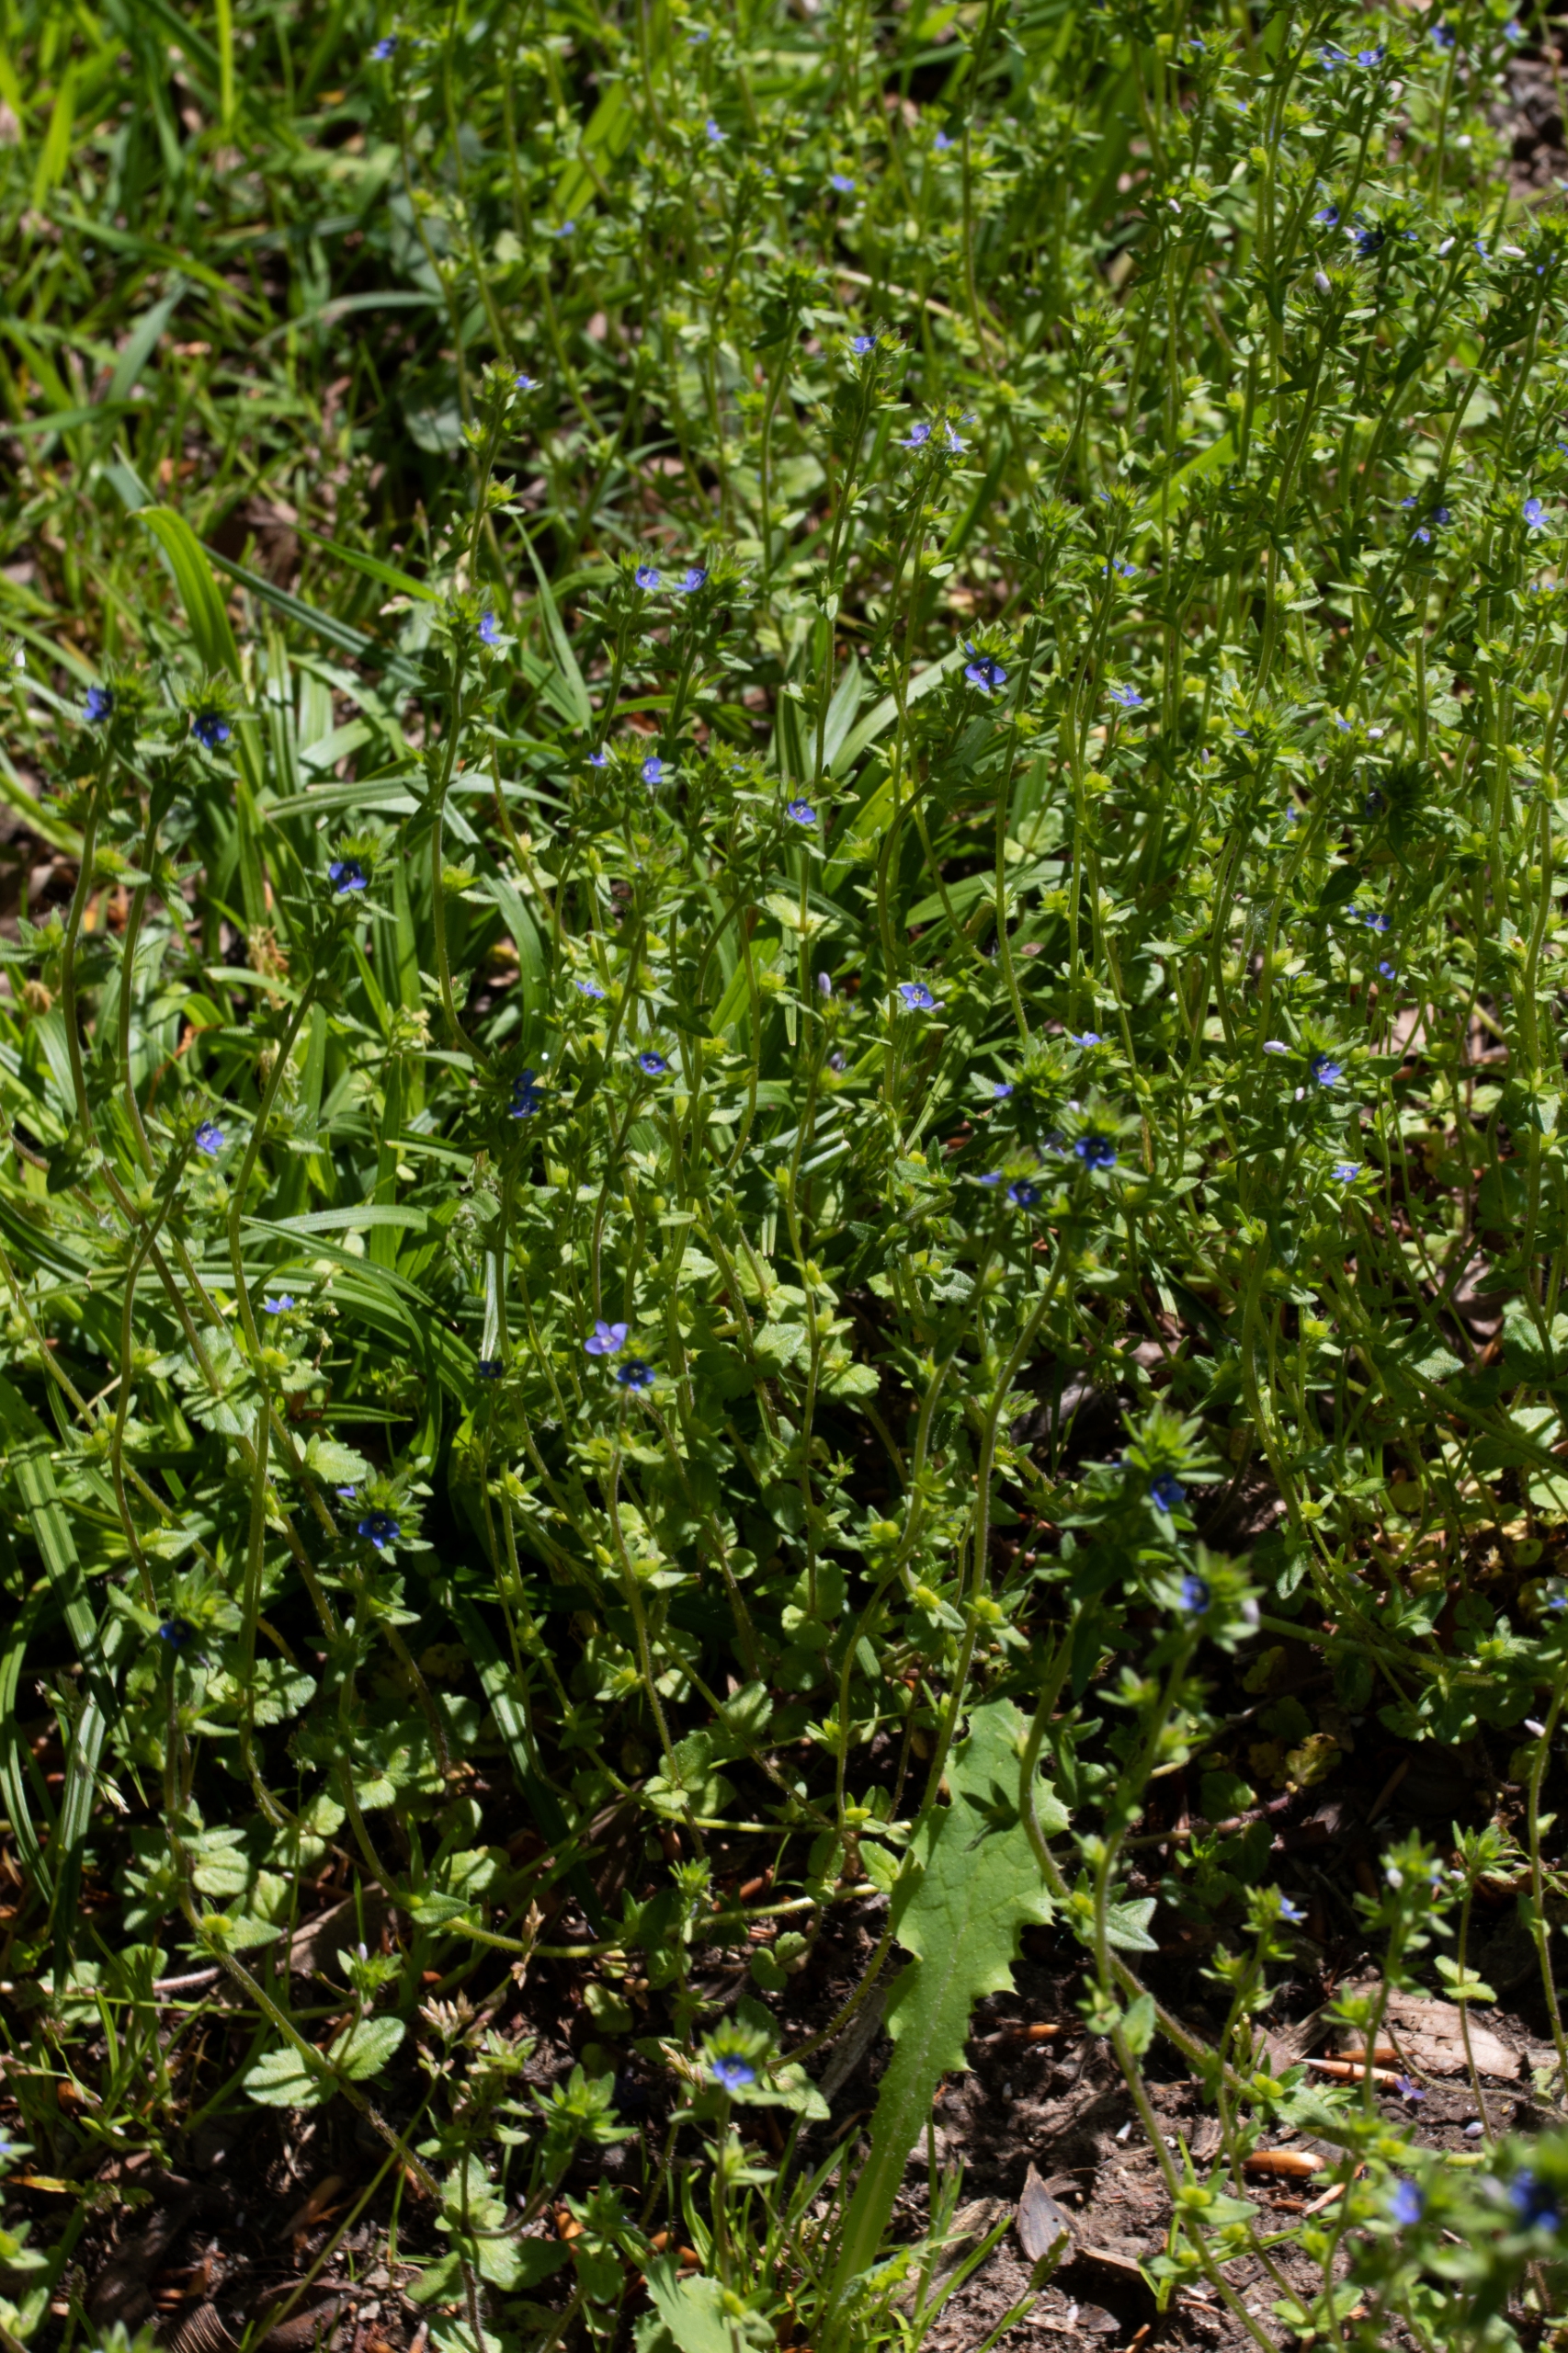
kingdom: Plantae
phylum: Tracheophyta
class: Magnoliopsida
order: Lamiales
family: Plantaginaceae
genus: Veronica
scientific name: Veronica arvensis
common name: Mark-ærenpris
